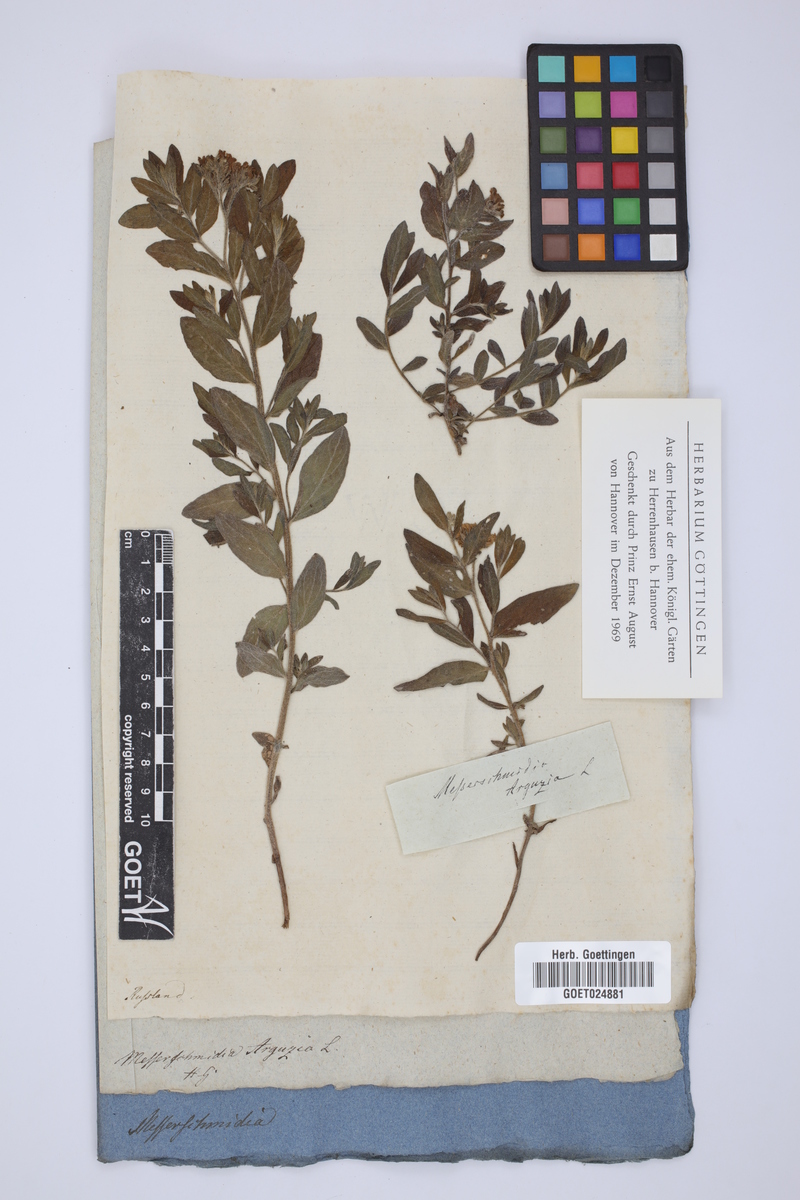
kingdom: Plantae
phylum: Tracheophyta
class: Magnoliopsida
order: Boraginales
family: Heliotropiaceae
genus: Tournefortia
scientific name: Tournefortia sibirica
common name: Siberian sea rosemary
